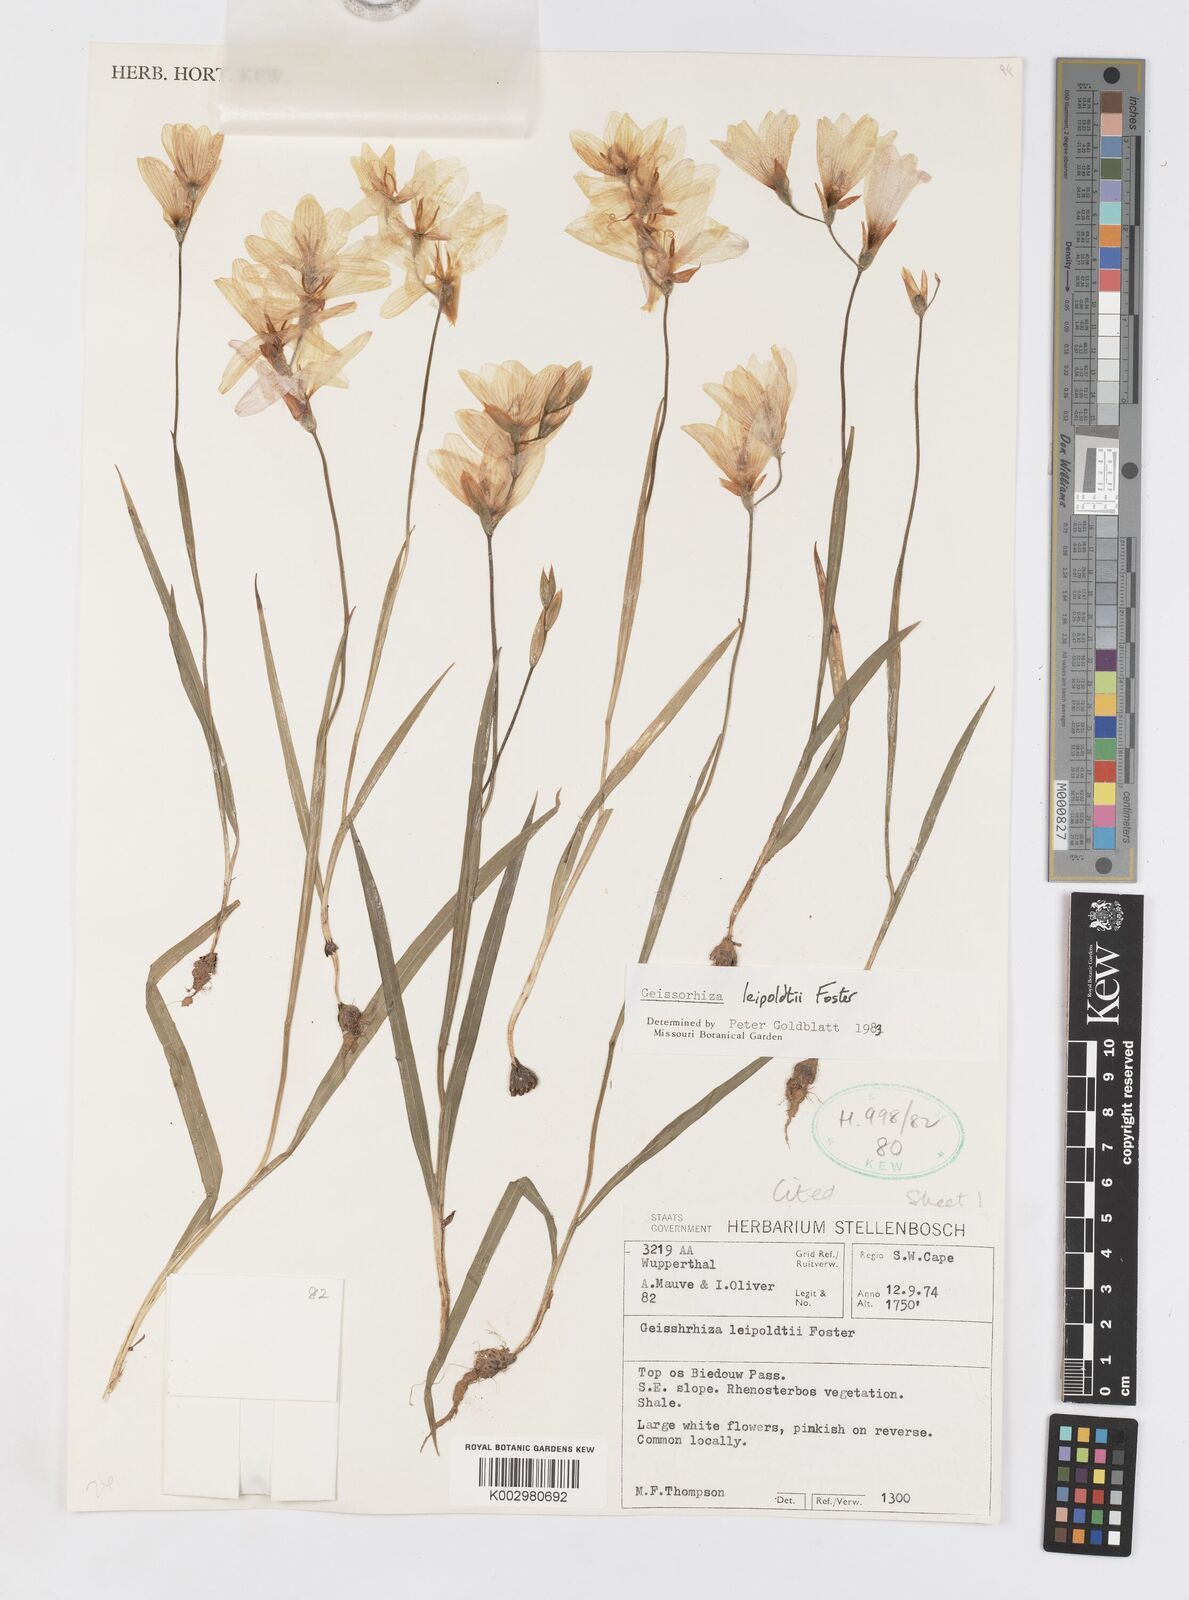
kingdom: Plantae
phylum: Tracheophyta
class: Liliopsida
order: Asparagales
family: Iridaceae
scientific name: Iridaceae
